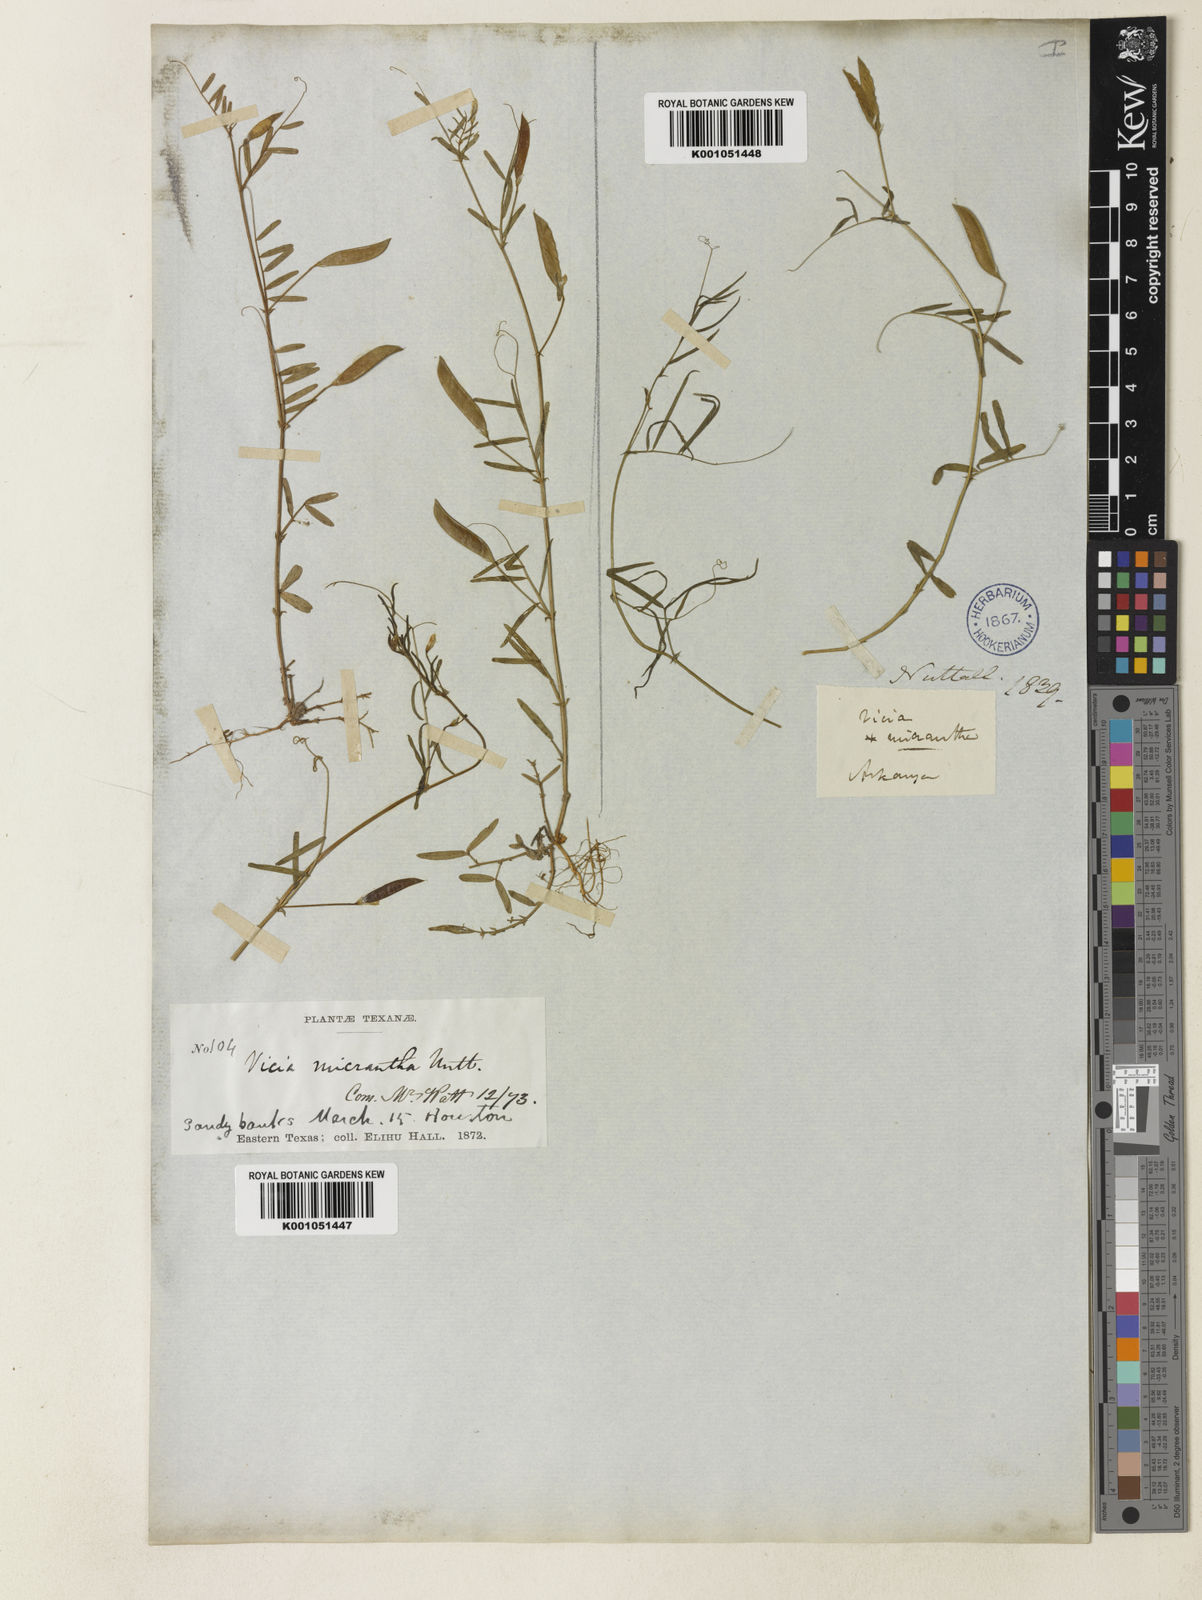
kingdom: Plantae
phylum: Tracheophyta
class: Magnoliopsida
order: Fabales
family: Fabaceae
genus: Vicia
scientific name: Vicia
